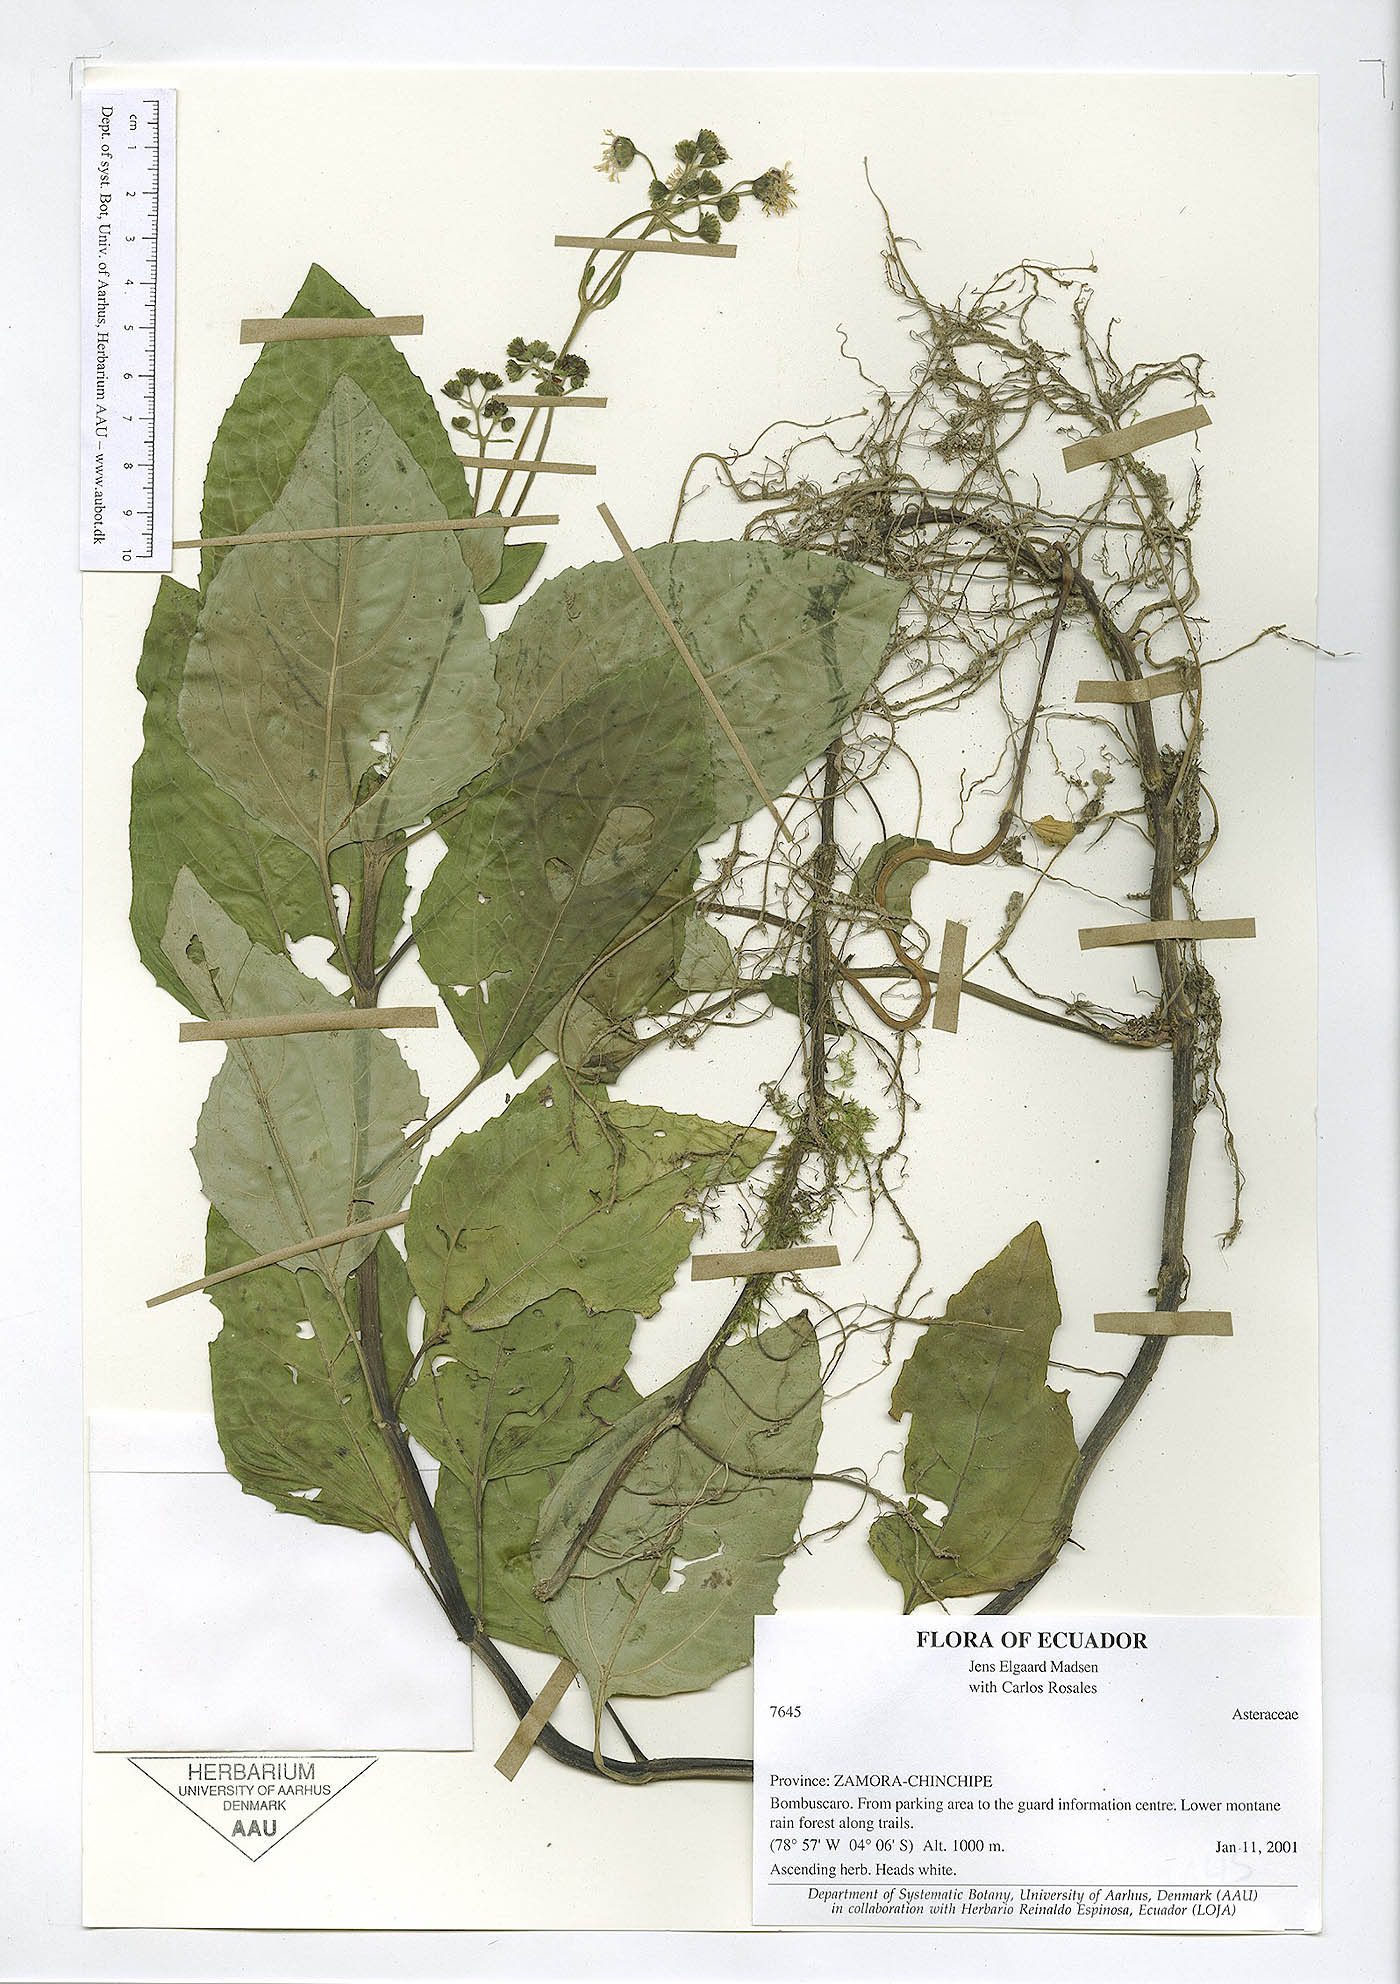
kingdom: Plantae
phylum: Tracheophyta
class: Magnoliopsida
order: Asterales
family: Asteraceae
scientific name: Asteraceae
